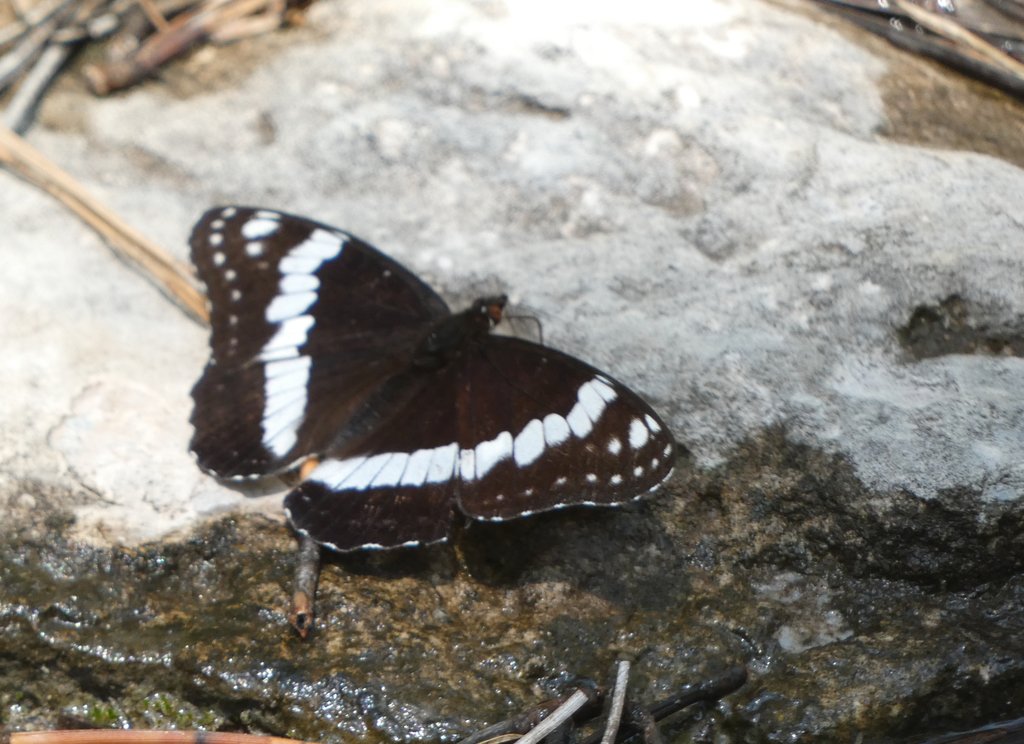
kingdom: Animalia
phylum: Arthropoda
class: Insecta
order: Lepidoptera
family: Nymphalidae
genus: Limenitis
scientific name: Limenitis weidemeyerii
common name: Weidemeyer's Admiral
